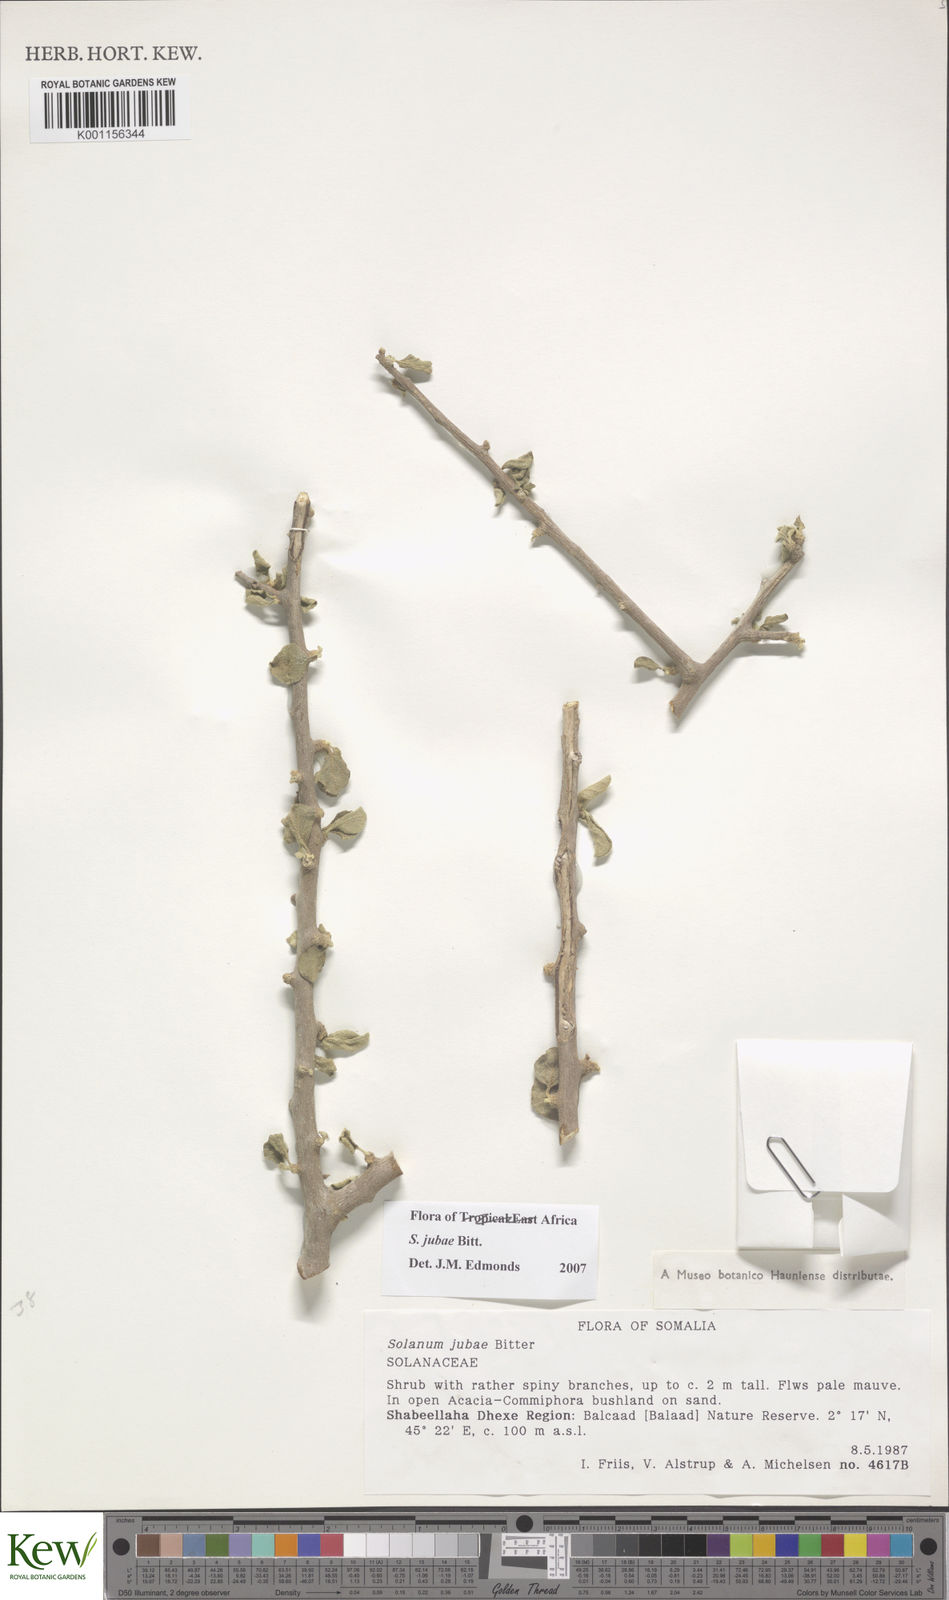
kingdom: Plantae
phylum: Tracheophyta
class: Magnoliopsida
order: Solanales
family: Solanaceae
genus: Solanum
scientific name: Solanum jubae
